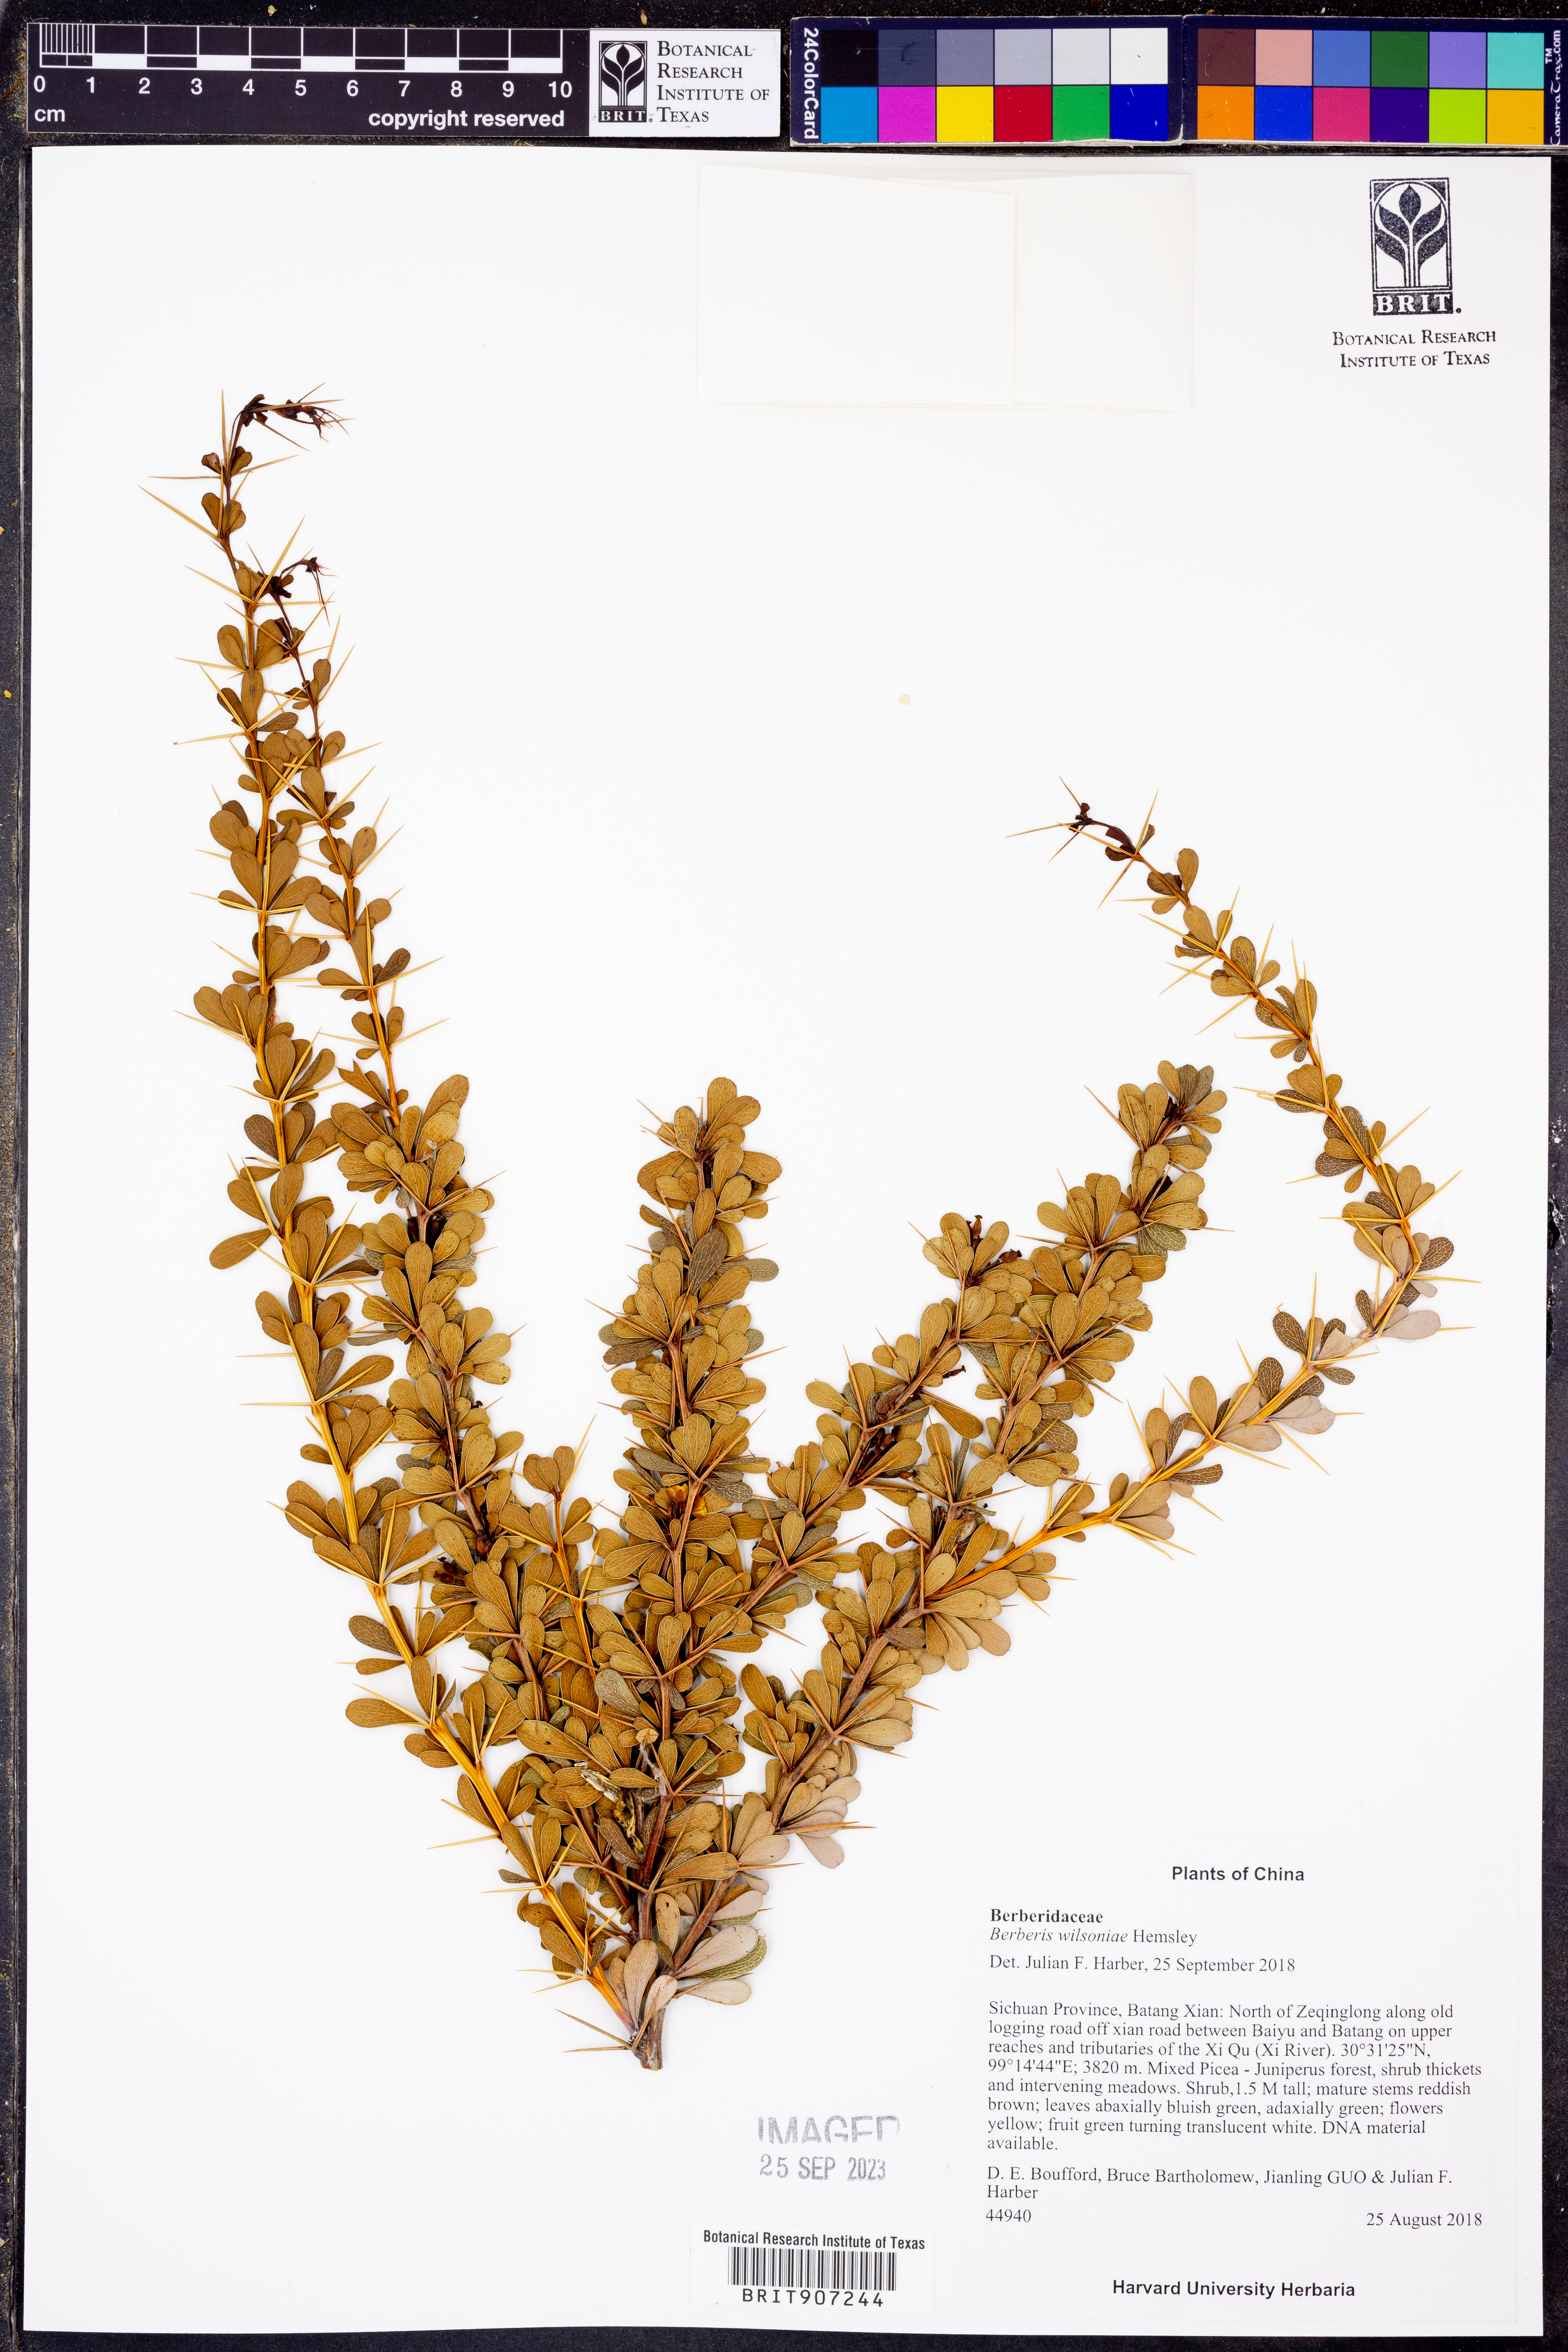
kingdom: Plantae
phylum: Tracheophyta
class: Magnoliopsida
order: Ranunculales
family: Berberidaceae
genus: Berberis
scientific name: Berberis wilsoniae
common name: Mrs wilson's barberry
